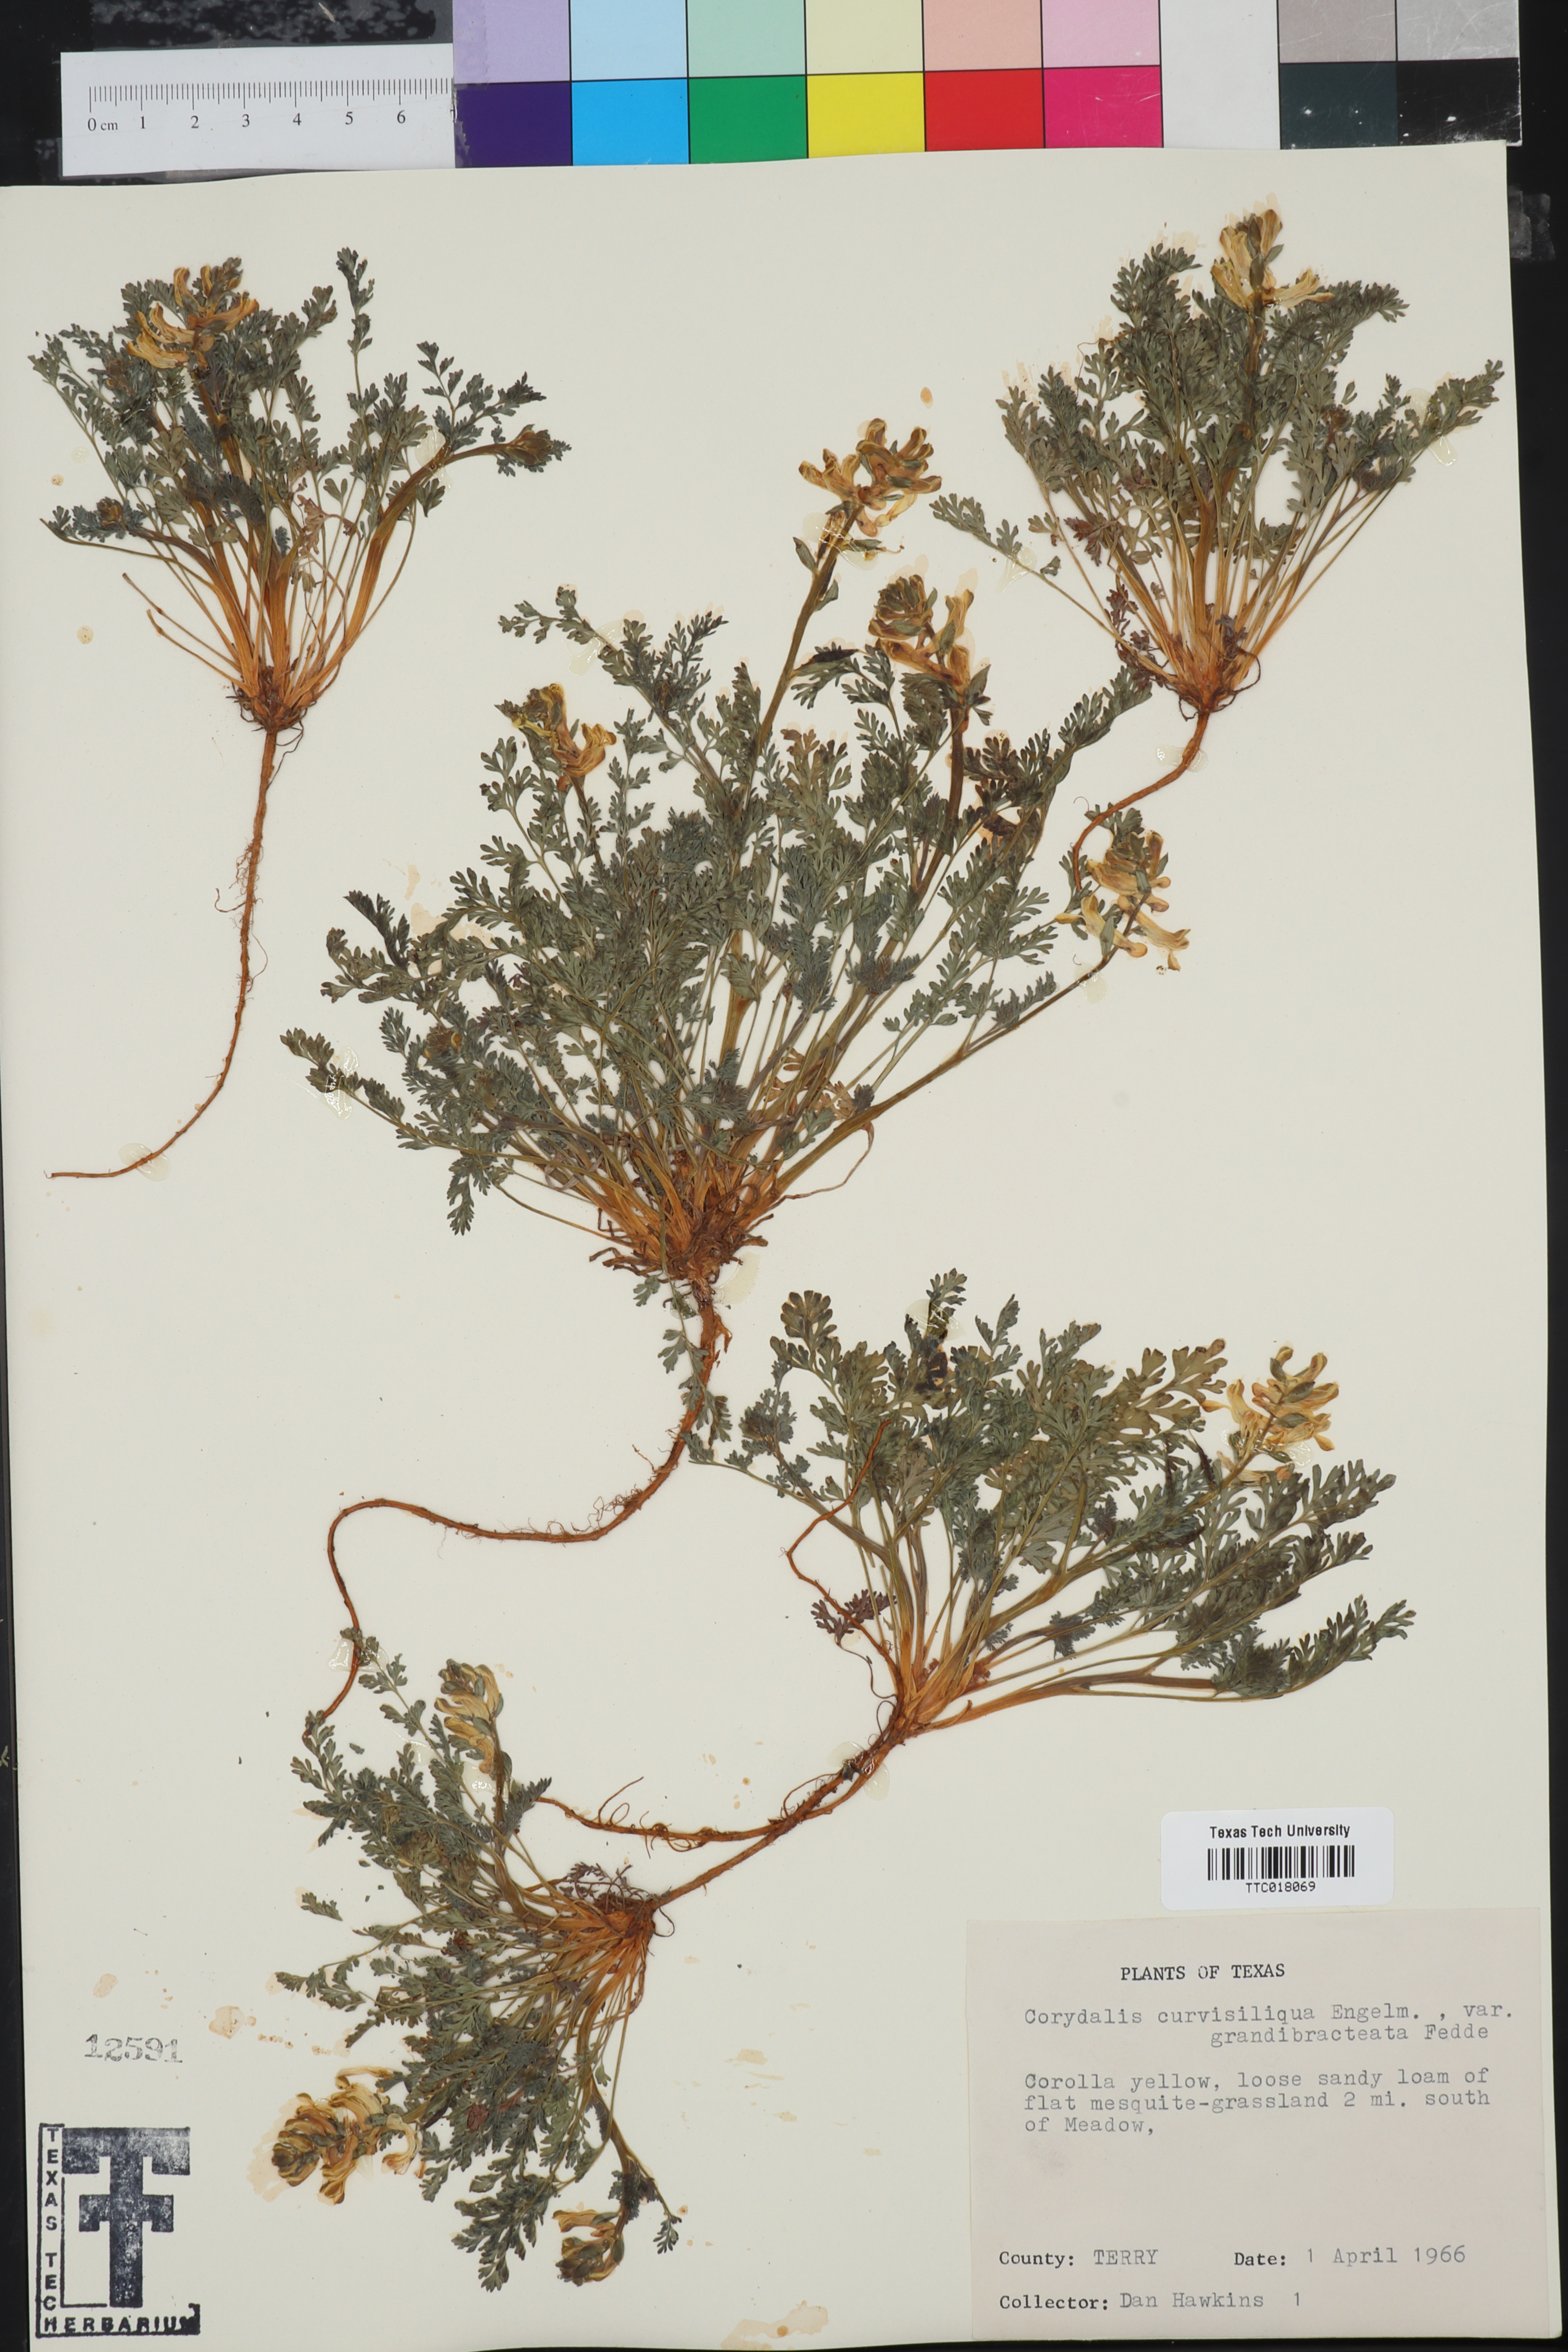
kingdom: Plantae
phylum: Tracheophyta
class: Magnoliopsida
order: Ranunculales
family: Papaveraceae
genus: Corydalis
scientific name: Corydalis curvisiliqua
